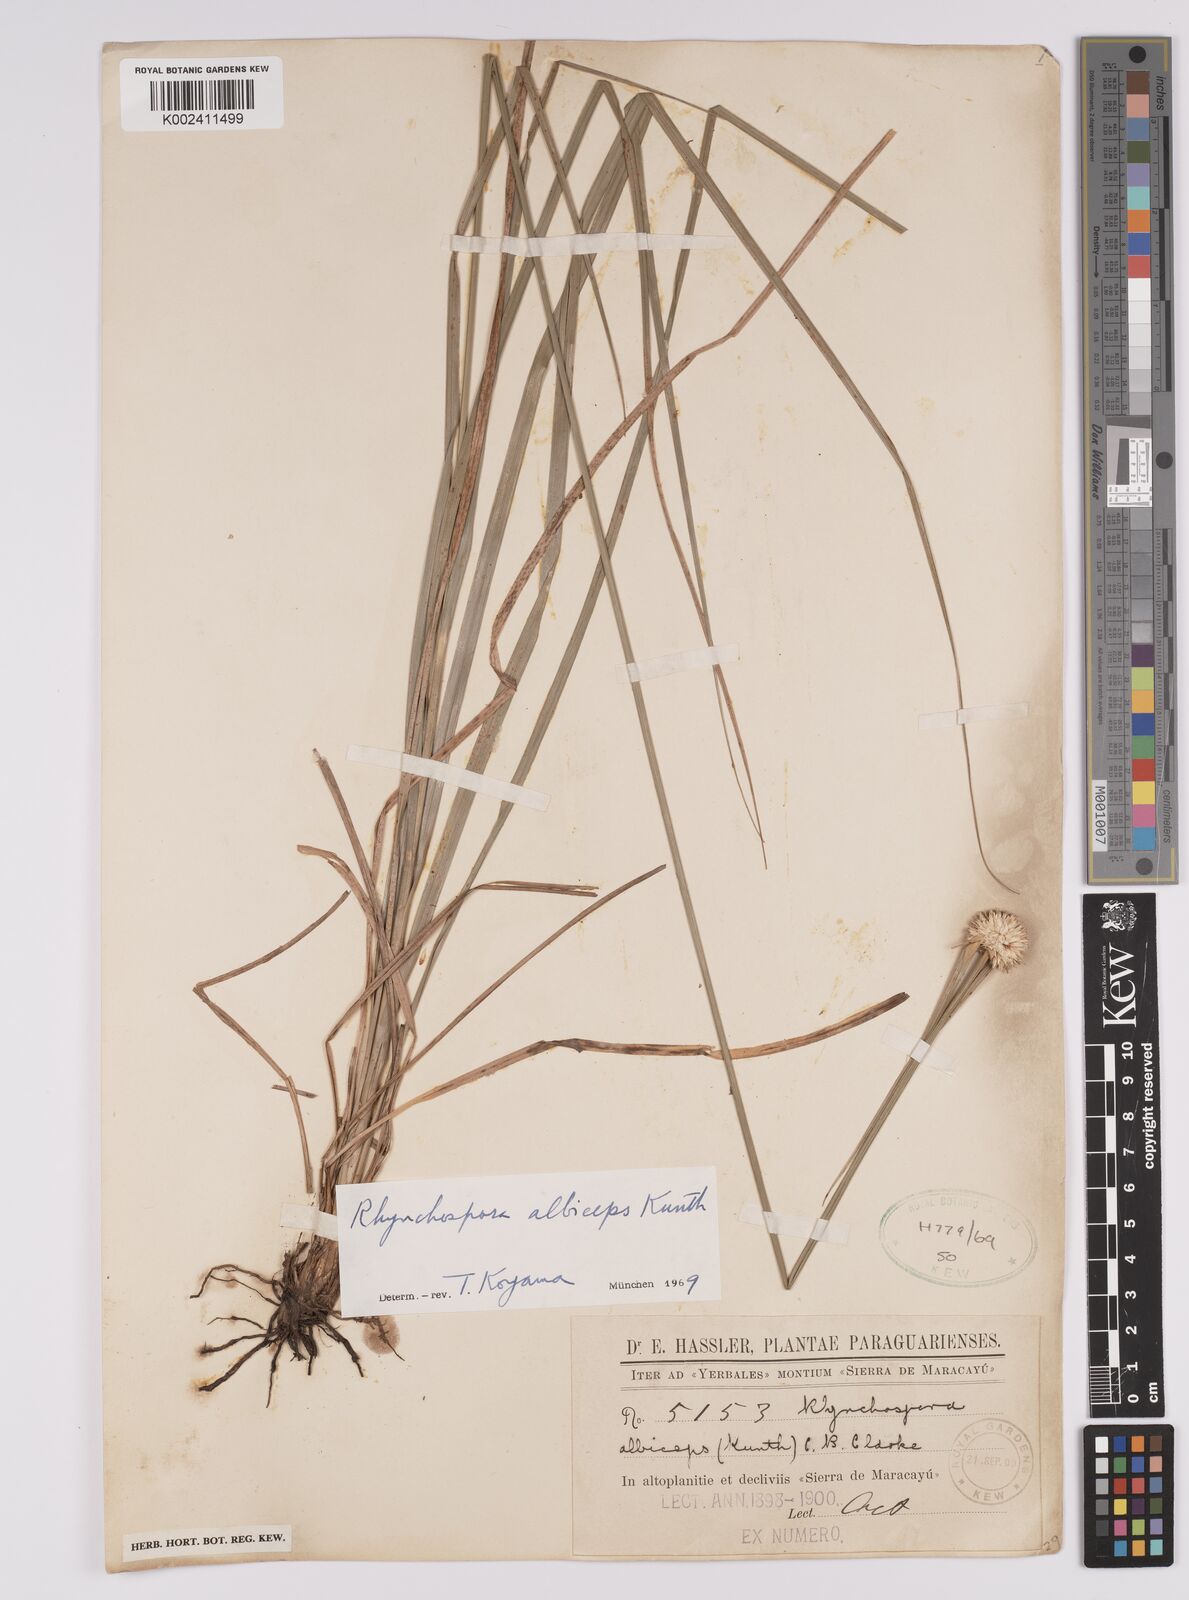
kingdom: Plantae
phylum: Tracheophyta
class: Liliopsida
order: Poales
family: Cyperaceae
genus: Rhynchospora
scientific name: Rhynchospora albiceps
